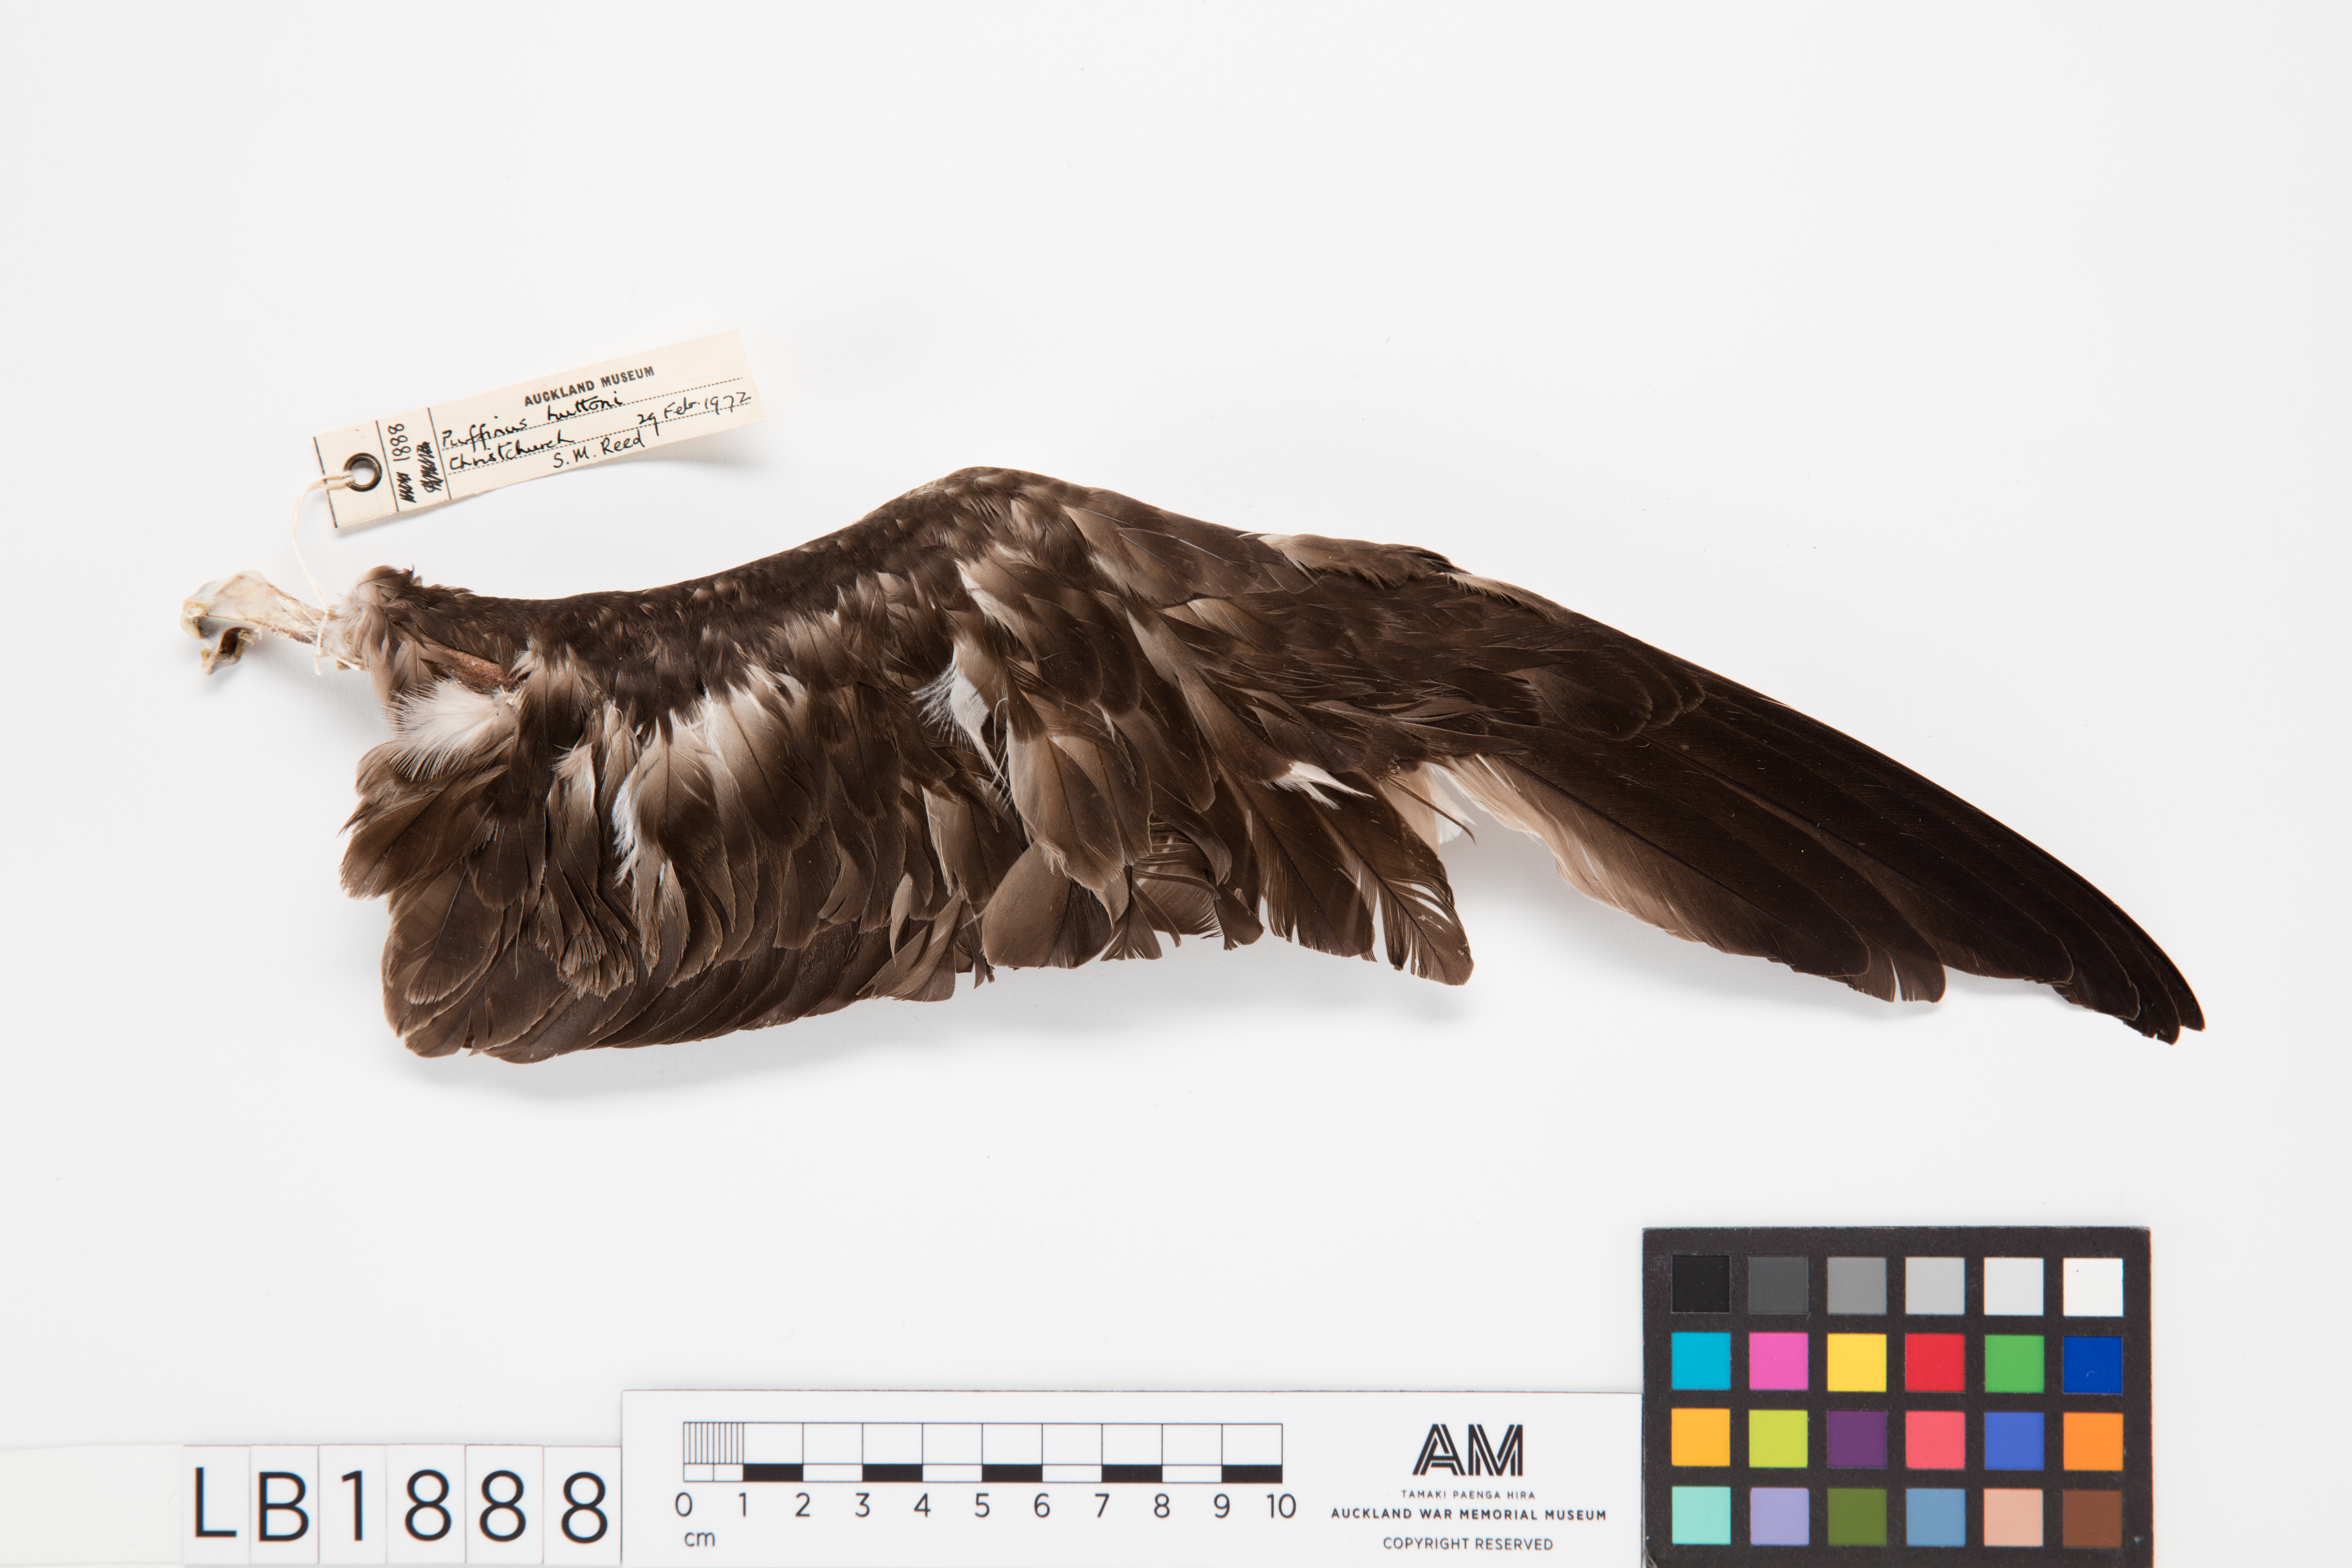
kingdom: Animalia
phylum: Chordata
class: Aves
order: Procellariiformes
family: Procellariidae
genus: Puffinus
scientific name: Puffinus huttoni
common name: Hutton's shearwater
